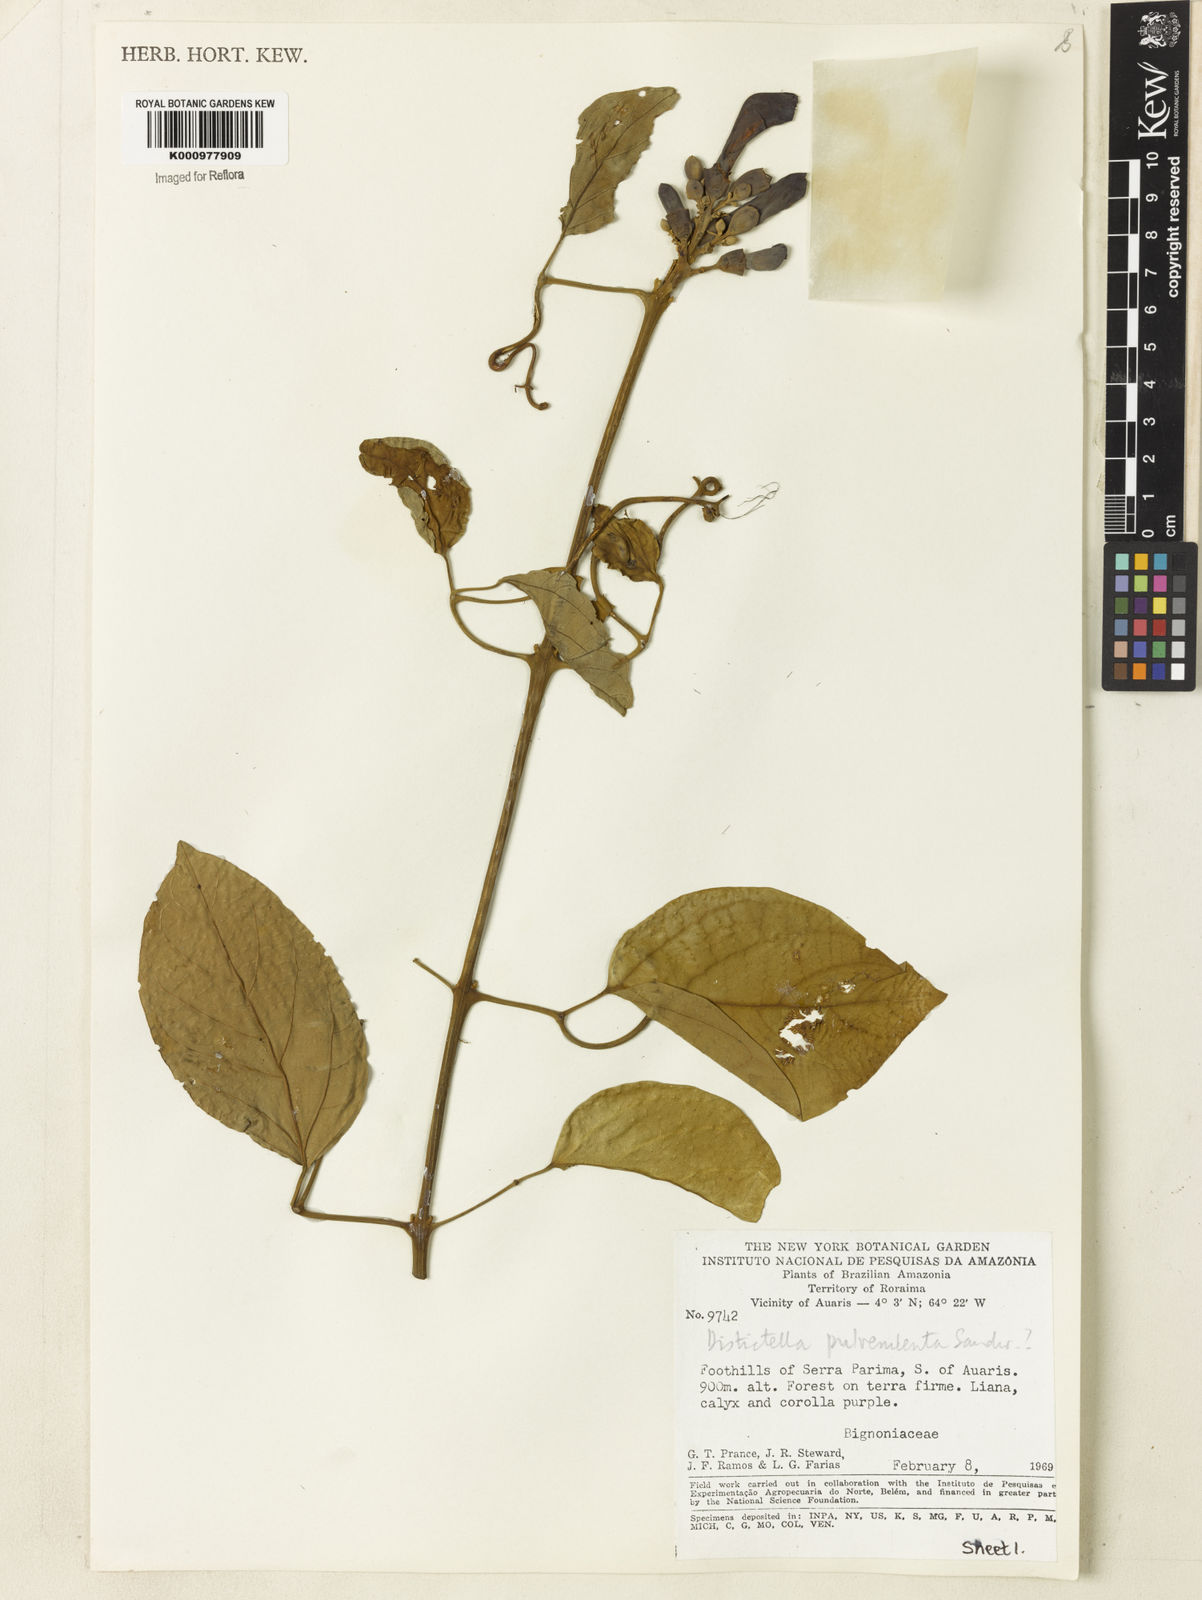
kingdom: Plantae
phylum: Tracheophyta
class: Magnoliopsida
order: Lamiales
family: Bignoniaceae
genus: Amphilophium
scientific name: Amphilophium pulverulentum
